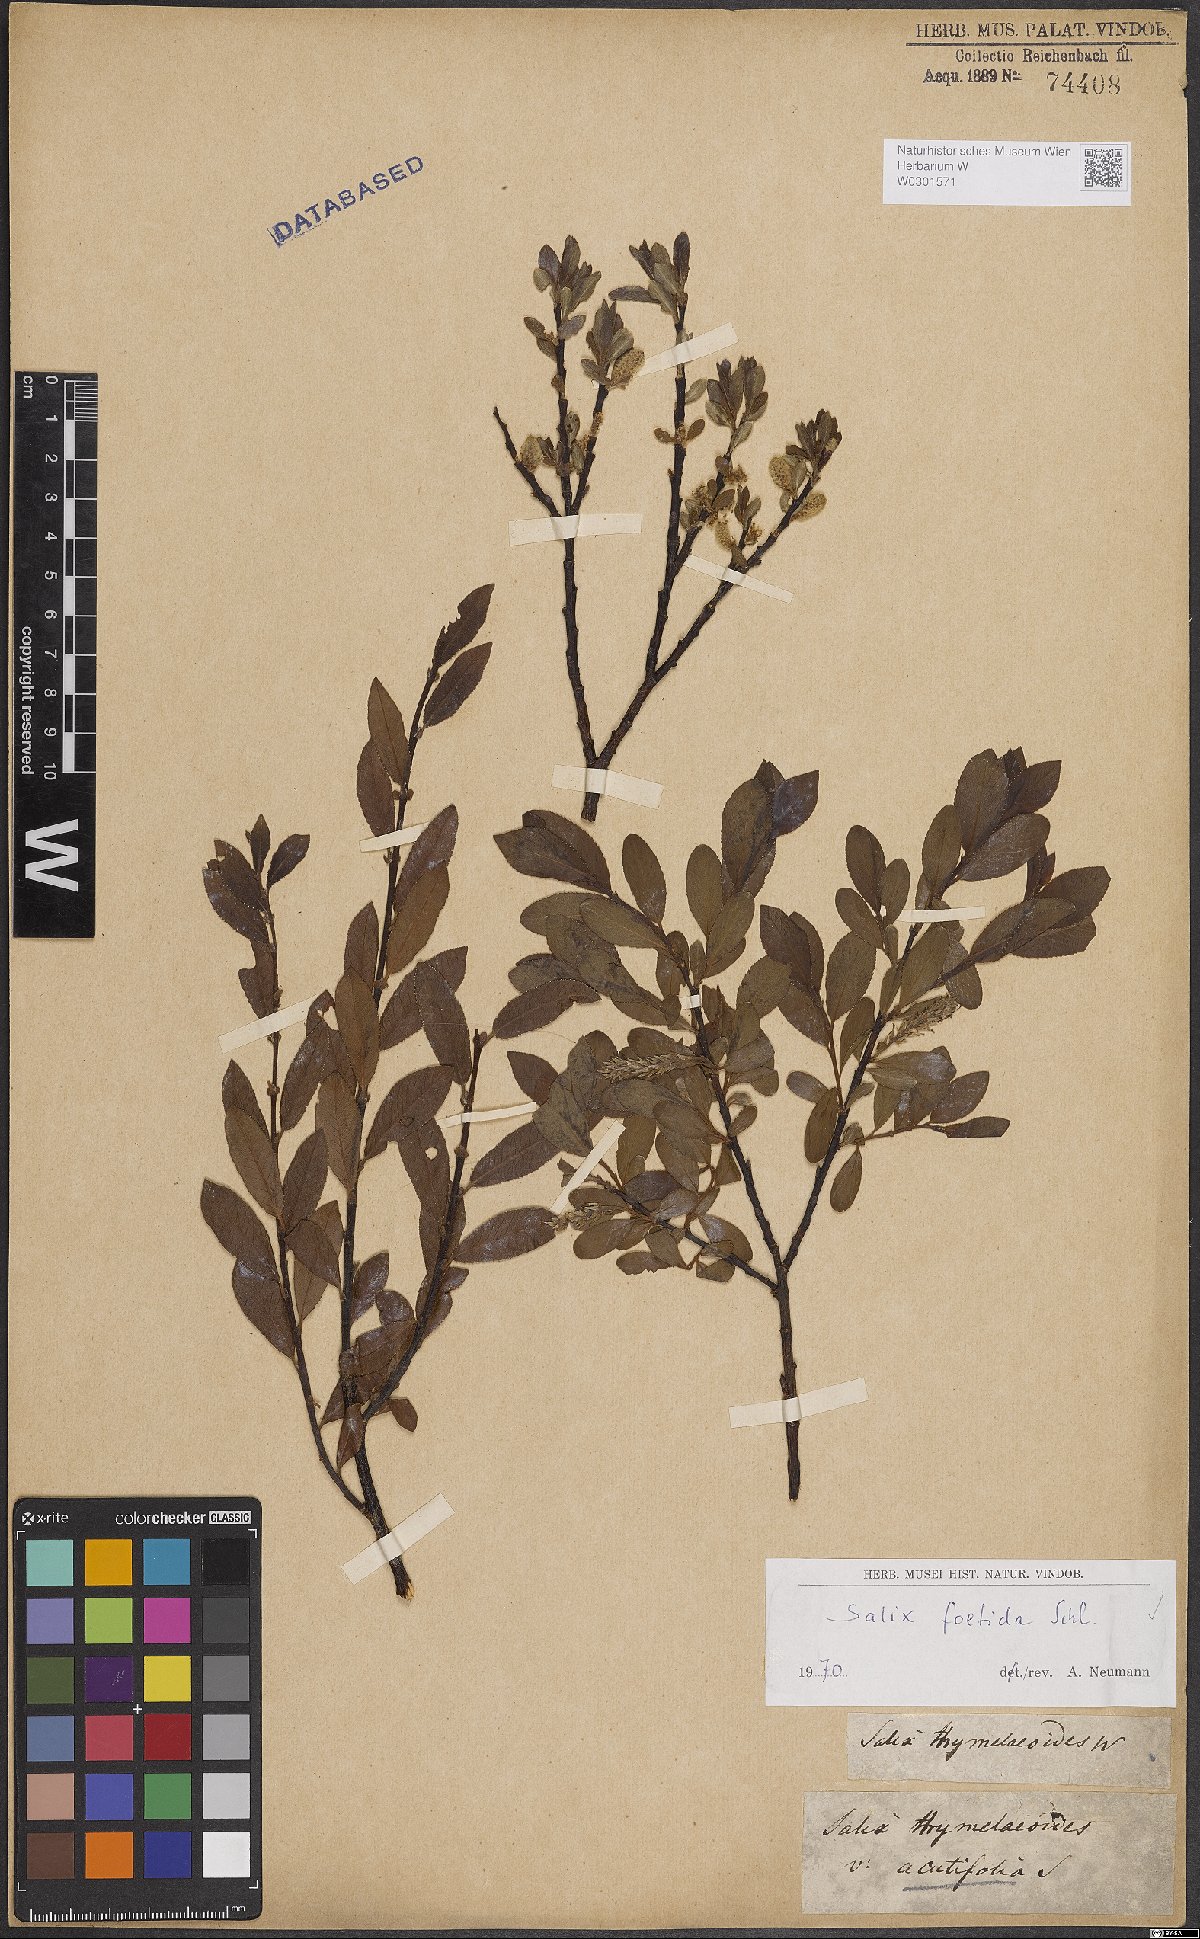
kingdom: Plantae
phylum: Tracheophyta
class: Magnoliopsida
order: Malpighiales
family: Salicaceae
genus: Salix
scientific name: Salix foetida
